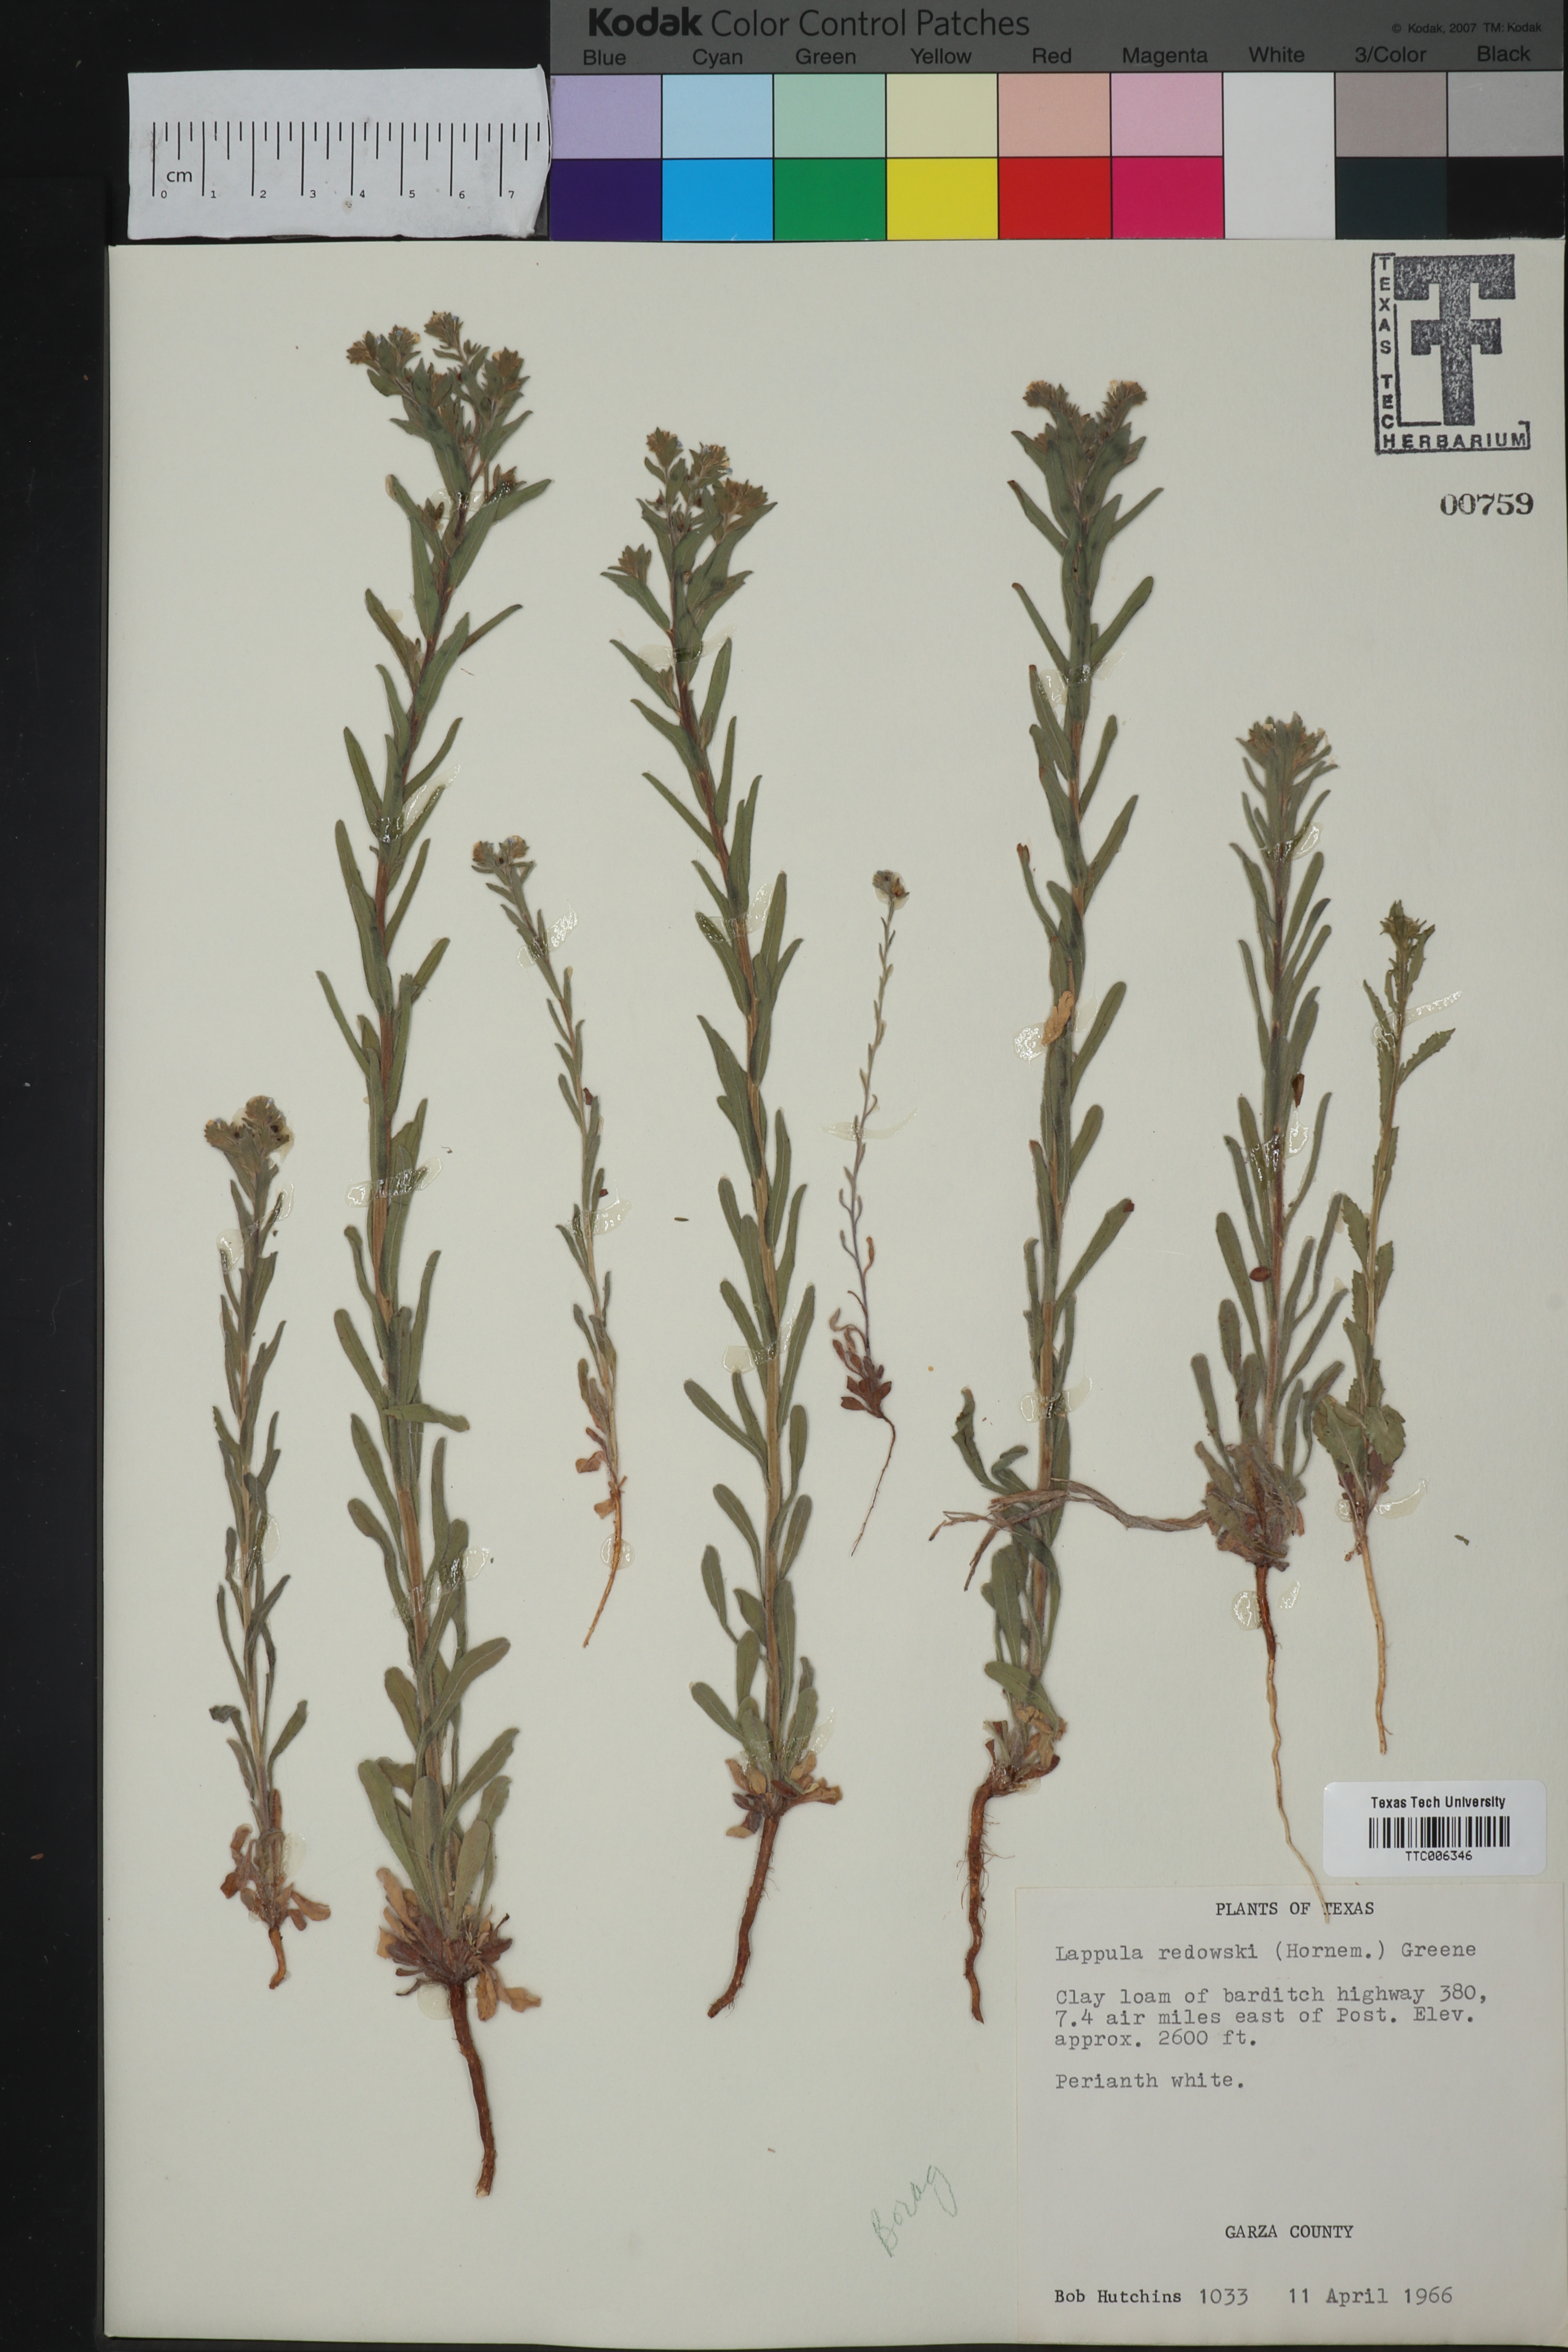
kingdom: Plantae
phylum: Tracheophyta
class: Magnoliopsida
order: Boraginales
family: Boraginaceae
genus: Lappula
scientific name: Lappula redowskii
